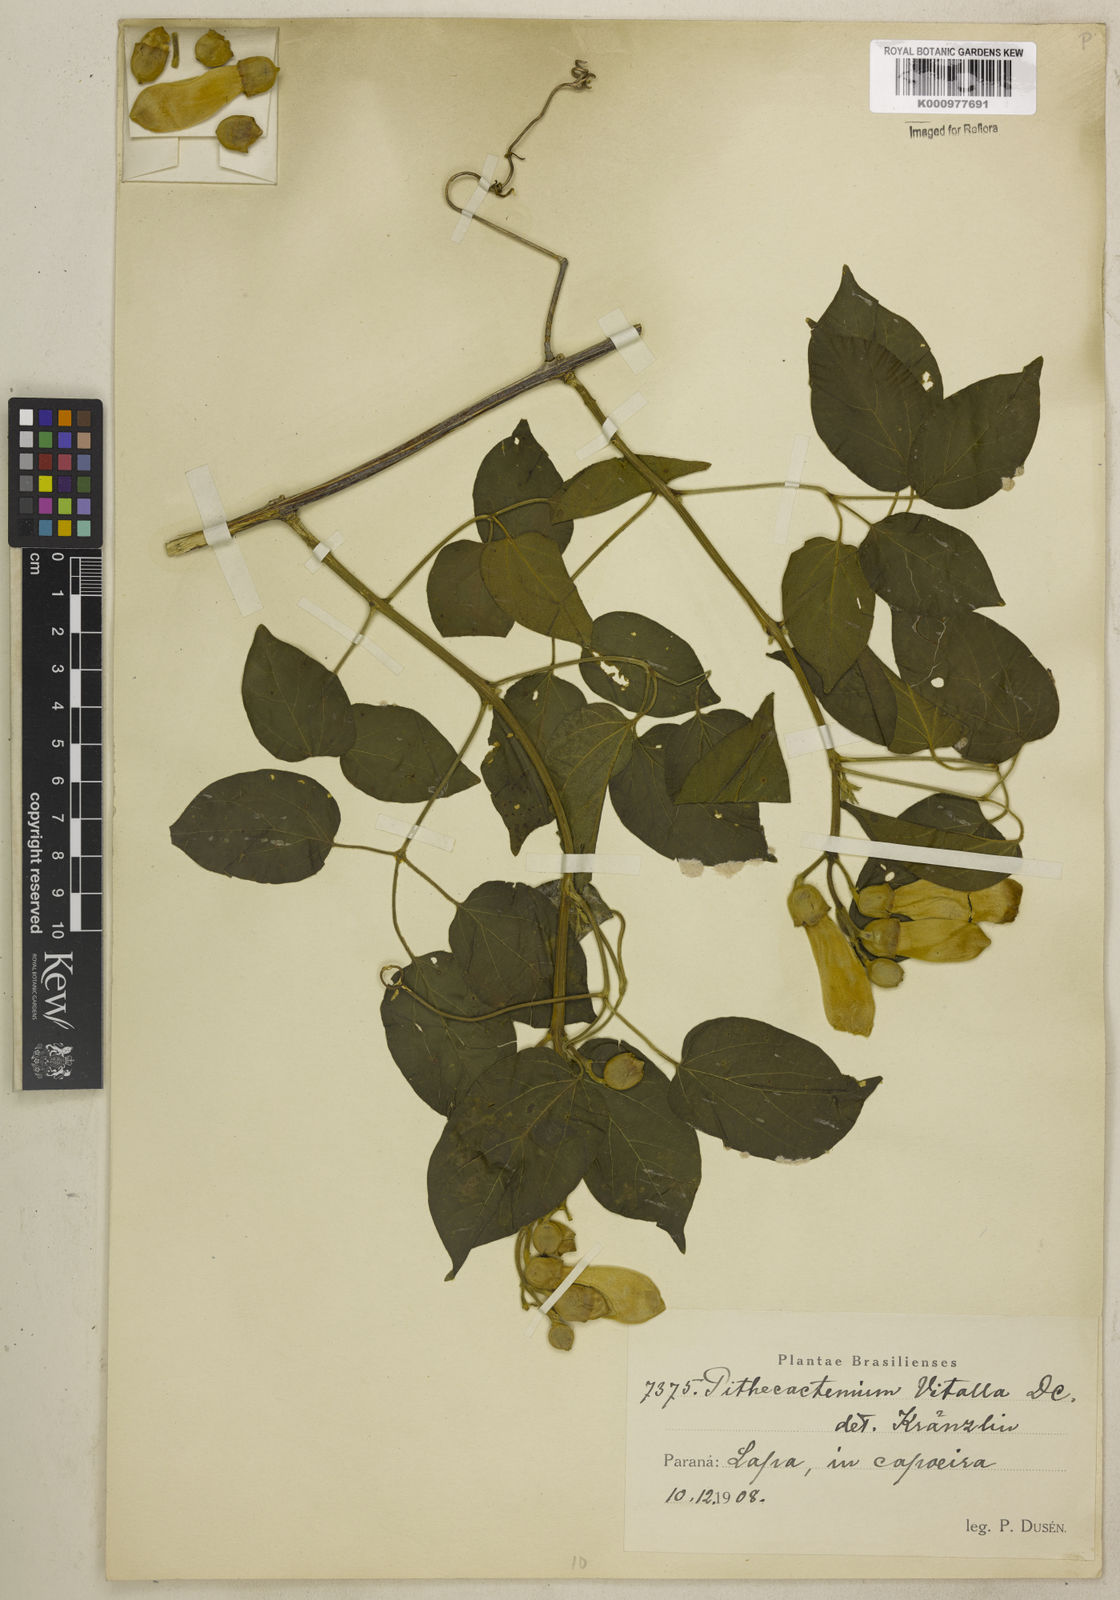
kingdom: Plantae
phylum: Tracheophyta
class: Magnoliopsida
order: Lamiales
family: Bignoniaceae
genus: Amphilophium
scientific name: Amphilophium crucigerum
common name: Monkey comb
